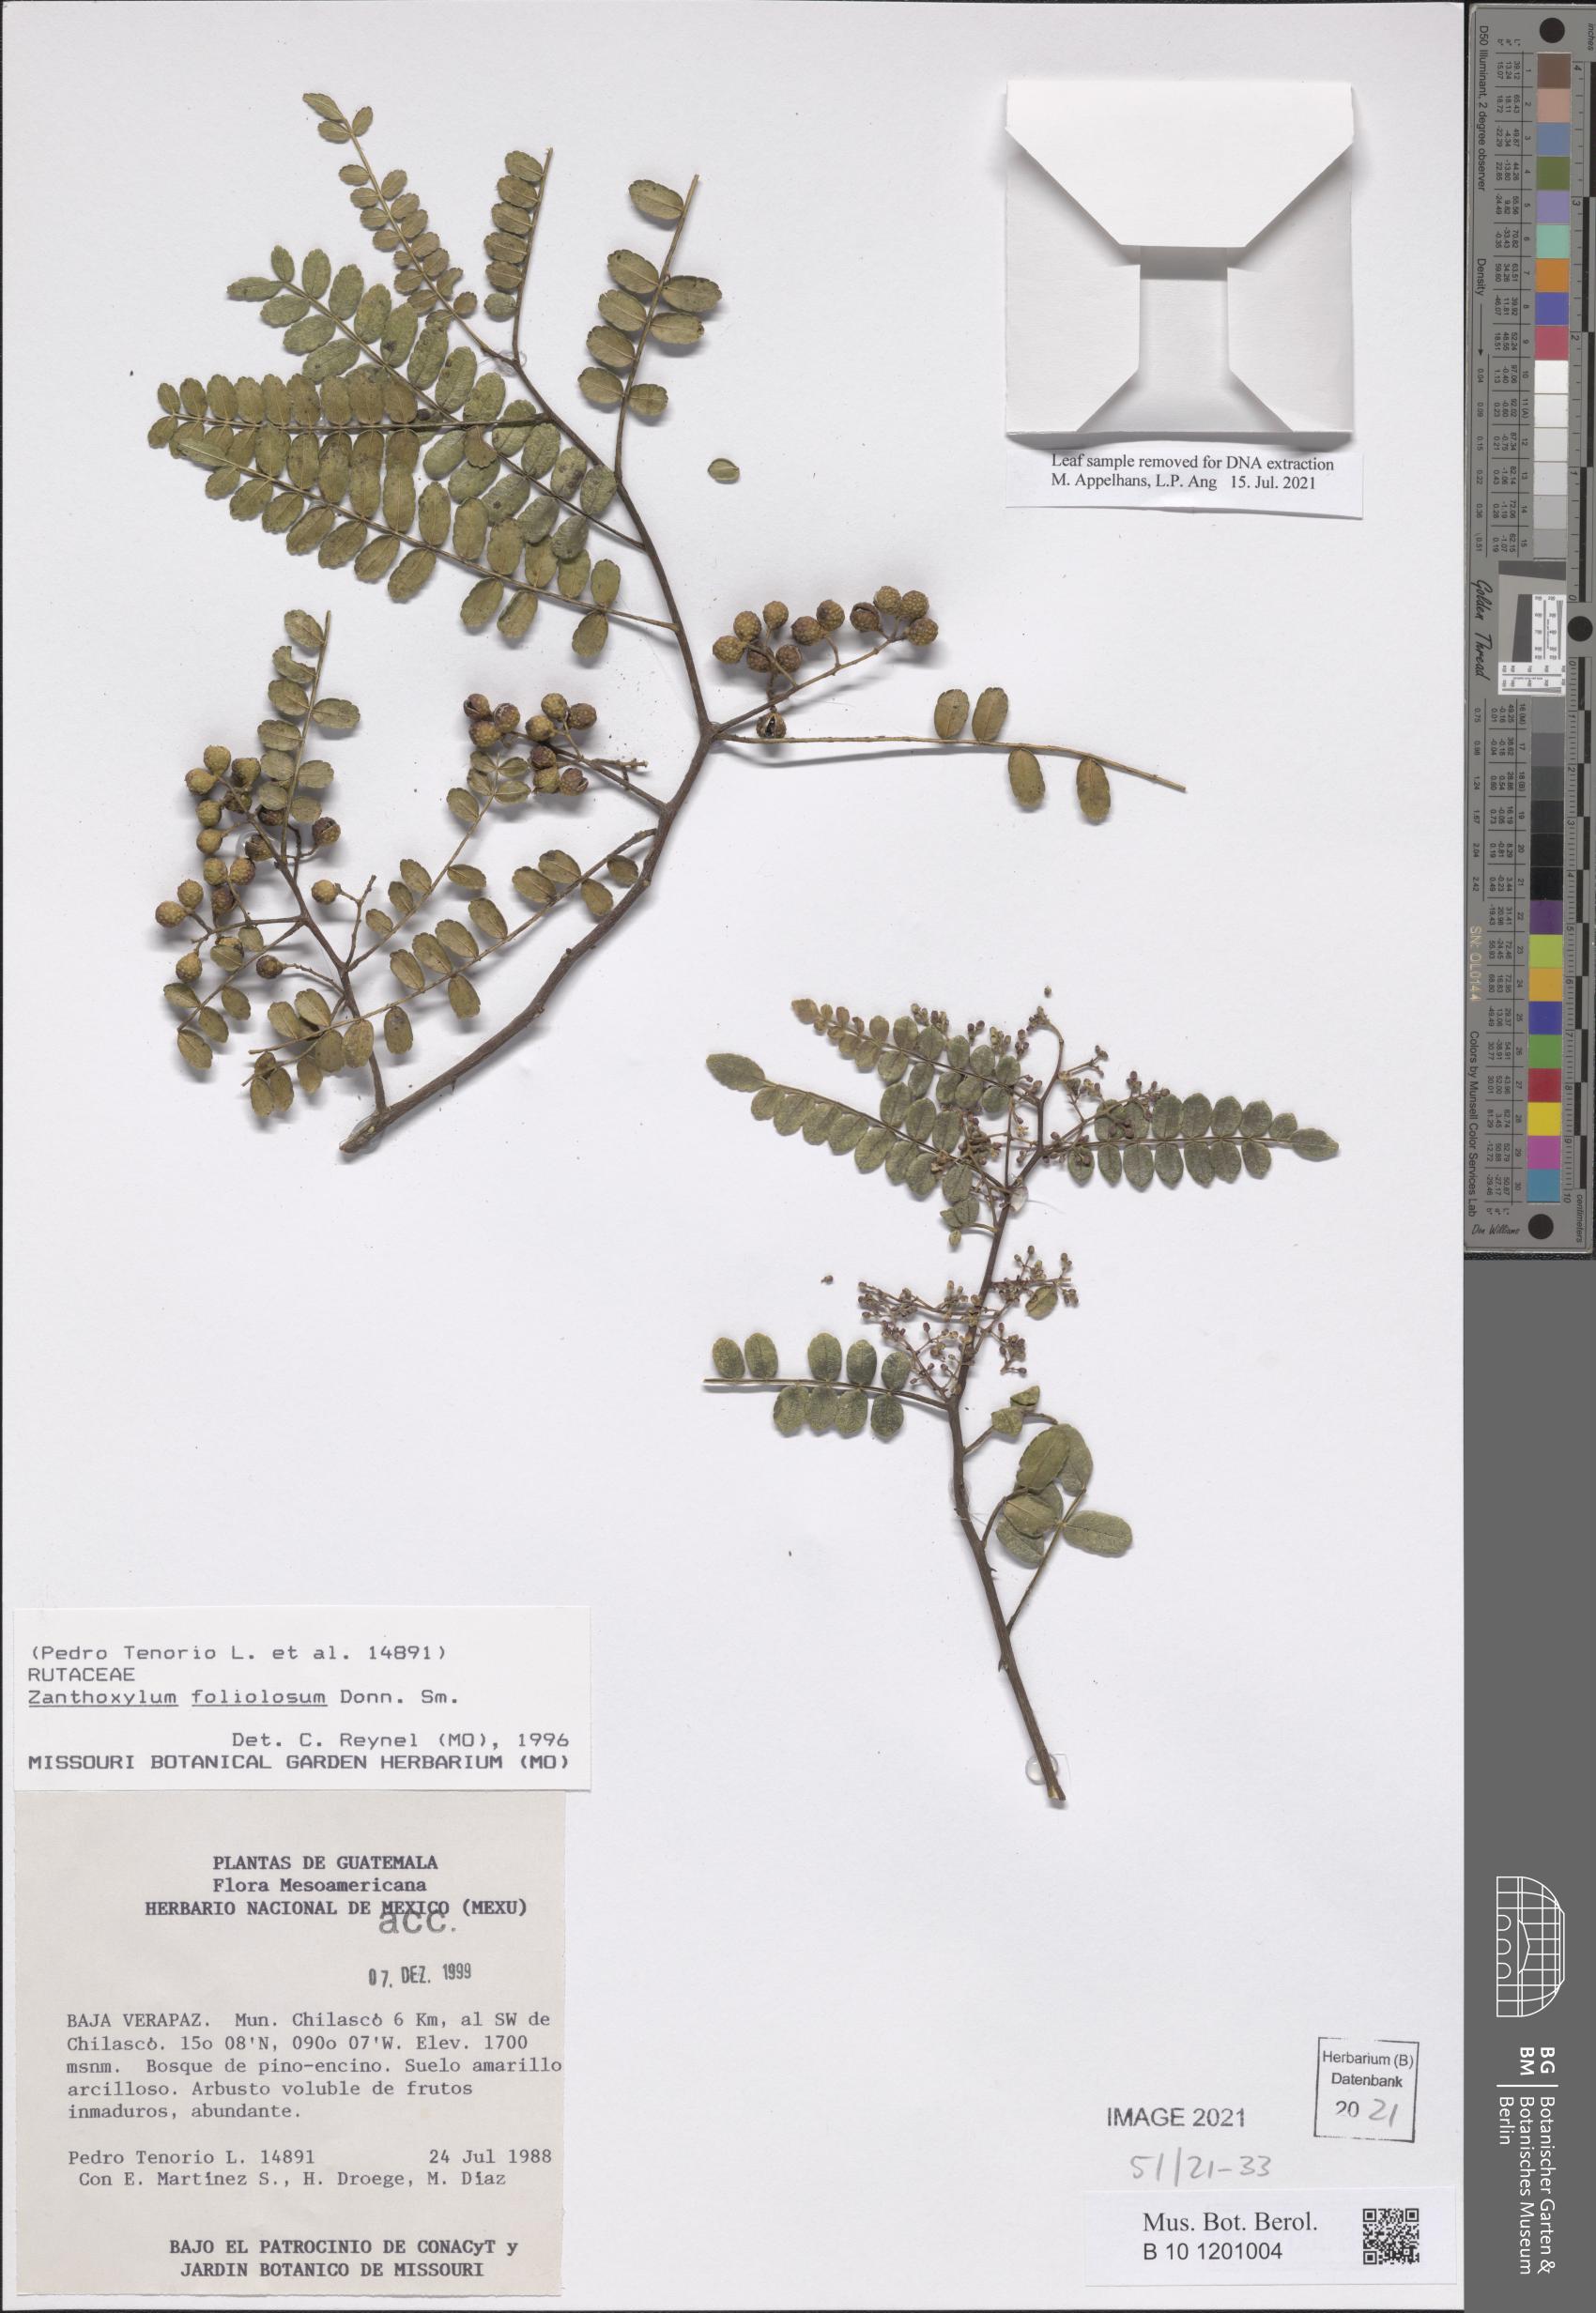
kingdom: Plantae
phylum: Tracheophyta
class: Magnoliopsida
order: Sapindales
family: Rutaceae
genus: Zanthoxylum
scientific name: Zanthoxylum foliolosum
